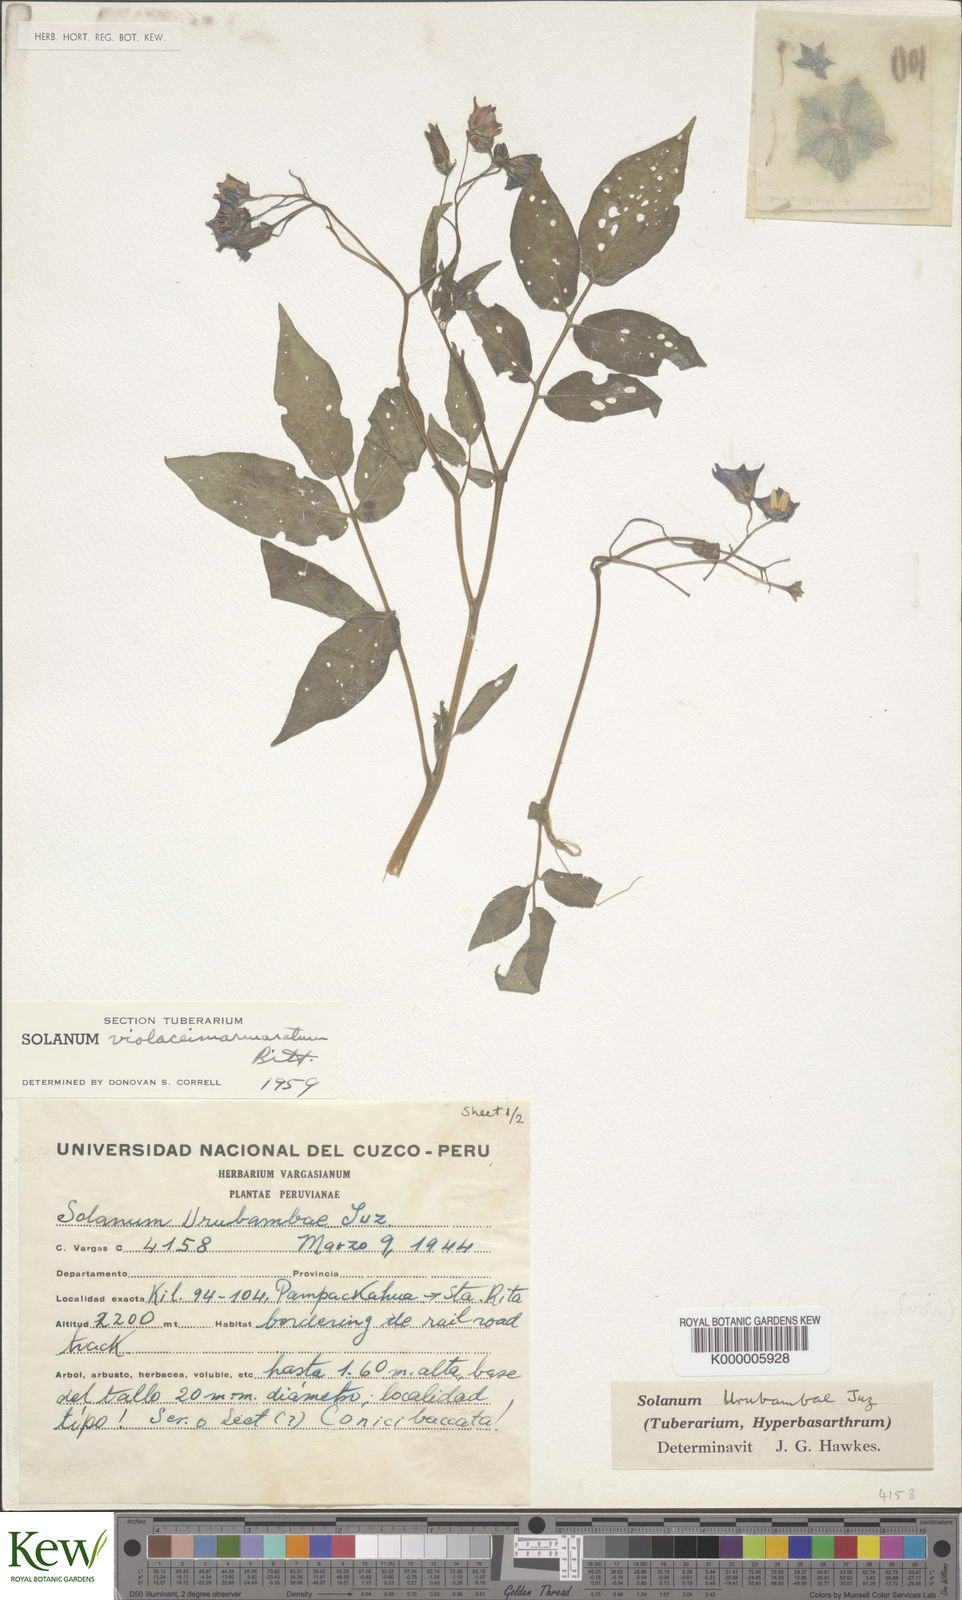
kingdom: Plantae
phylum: Tracheophyta
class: Magnoliopsida
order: Solanales
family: Solanaceae
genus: Solanum
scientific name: Solanum violaceimarmoratum
